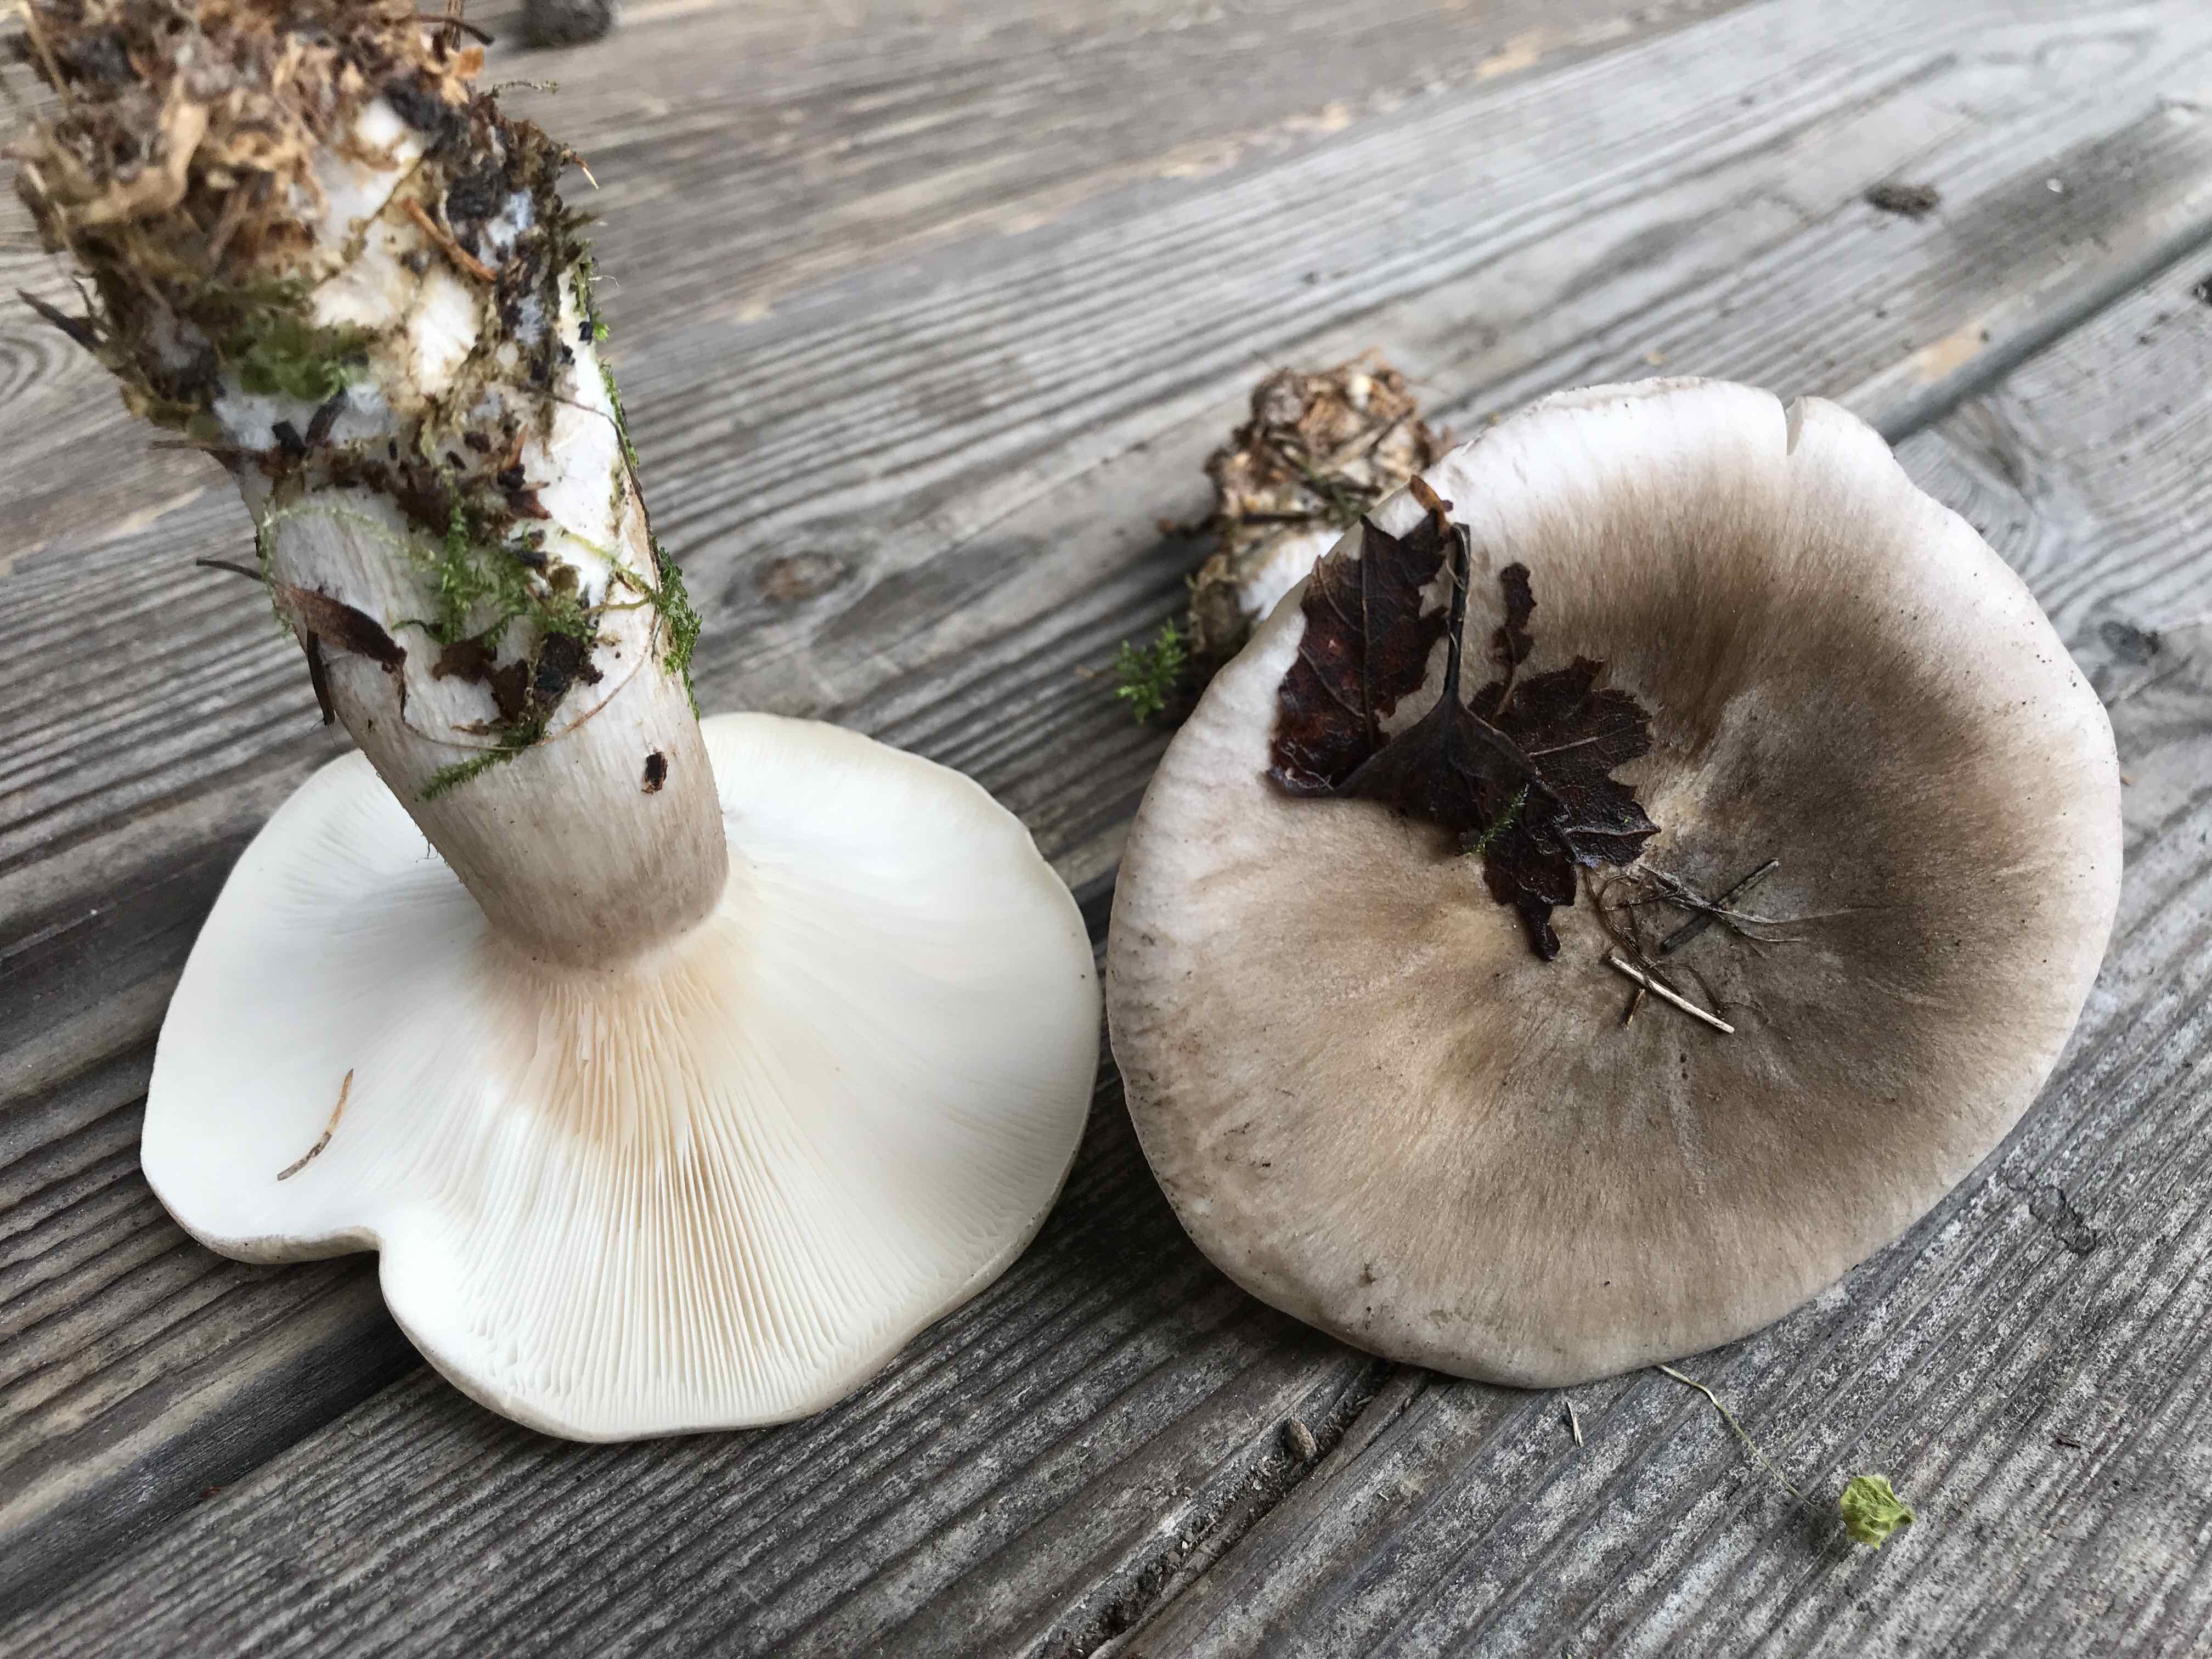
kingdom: Fungi
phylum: Basidiomycota
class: Agaricomycetes
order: Agaricales
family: Tricholomataceae
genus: Clitocybe
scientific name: Clitocybe nebularis
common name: tåge-tragthat
